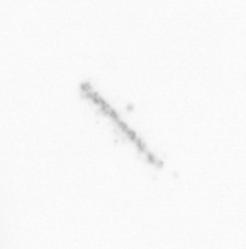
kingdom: Chromista
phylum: Ochrophyta
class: Bacillariophyceae
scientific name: Bacillariophyceae
